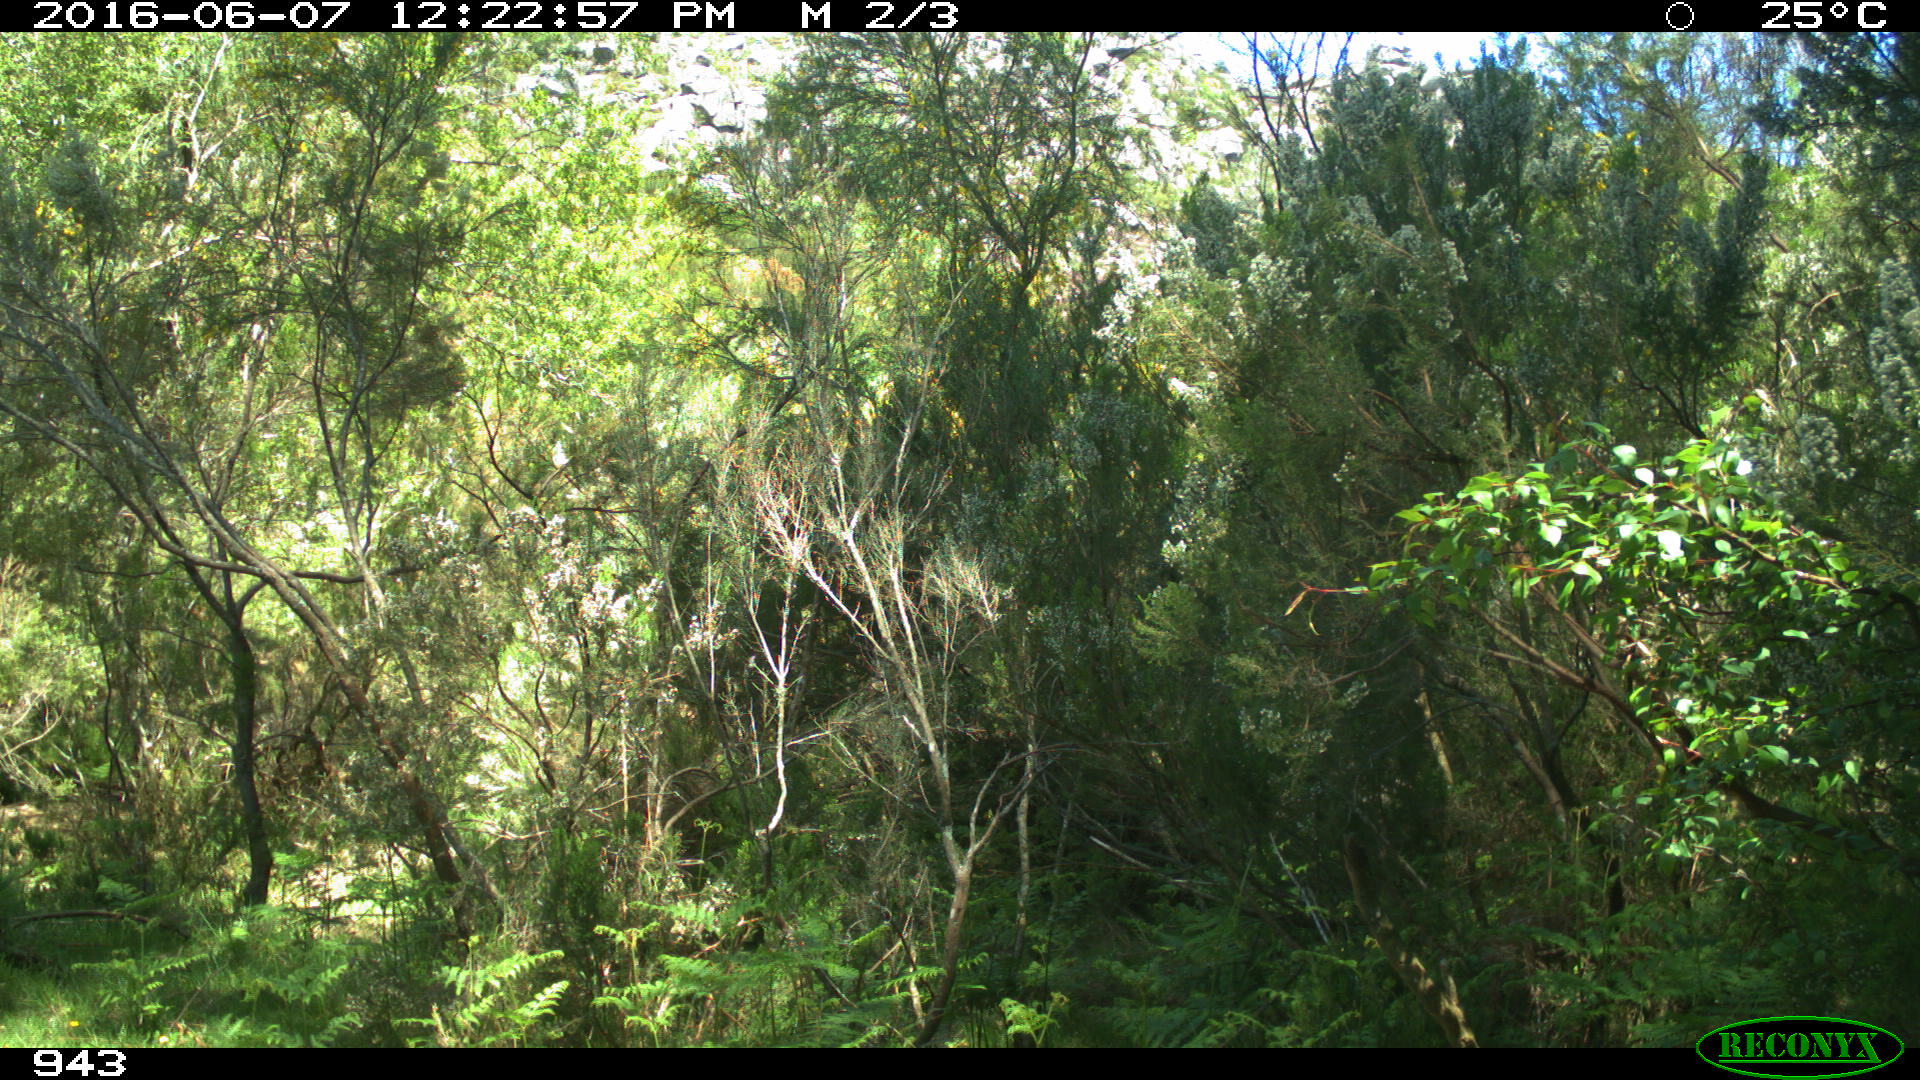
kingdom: Animalia
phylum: Chordata
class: Mammalia
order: Perissodactyla
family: Equidae
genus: Equus
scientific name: Equus caballus
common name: Horse
